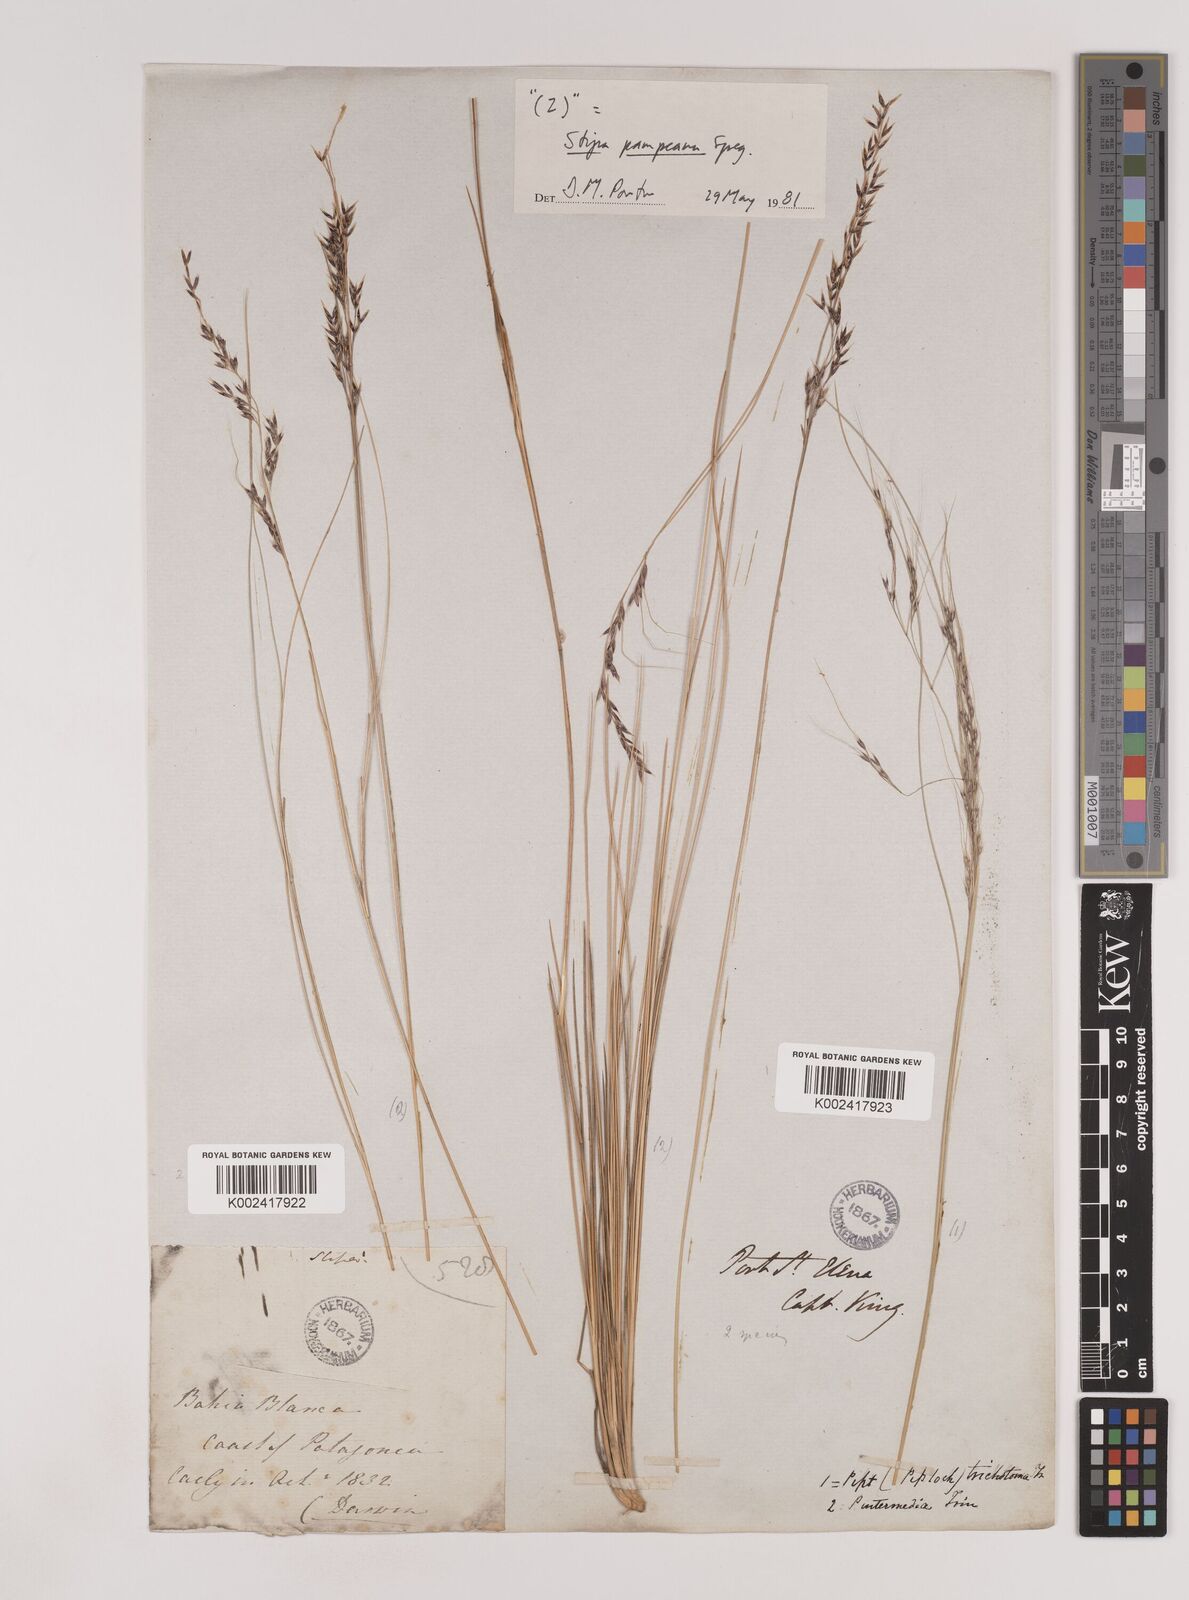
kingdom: Plantae
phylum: Tracheophyta
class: Liliopsida
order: Poales
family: Poaceae
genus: Nassella
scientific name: Nassella pampeana
